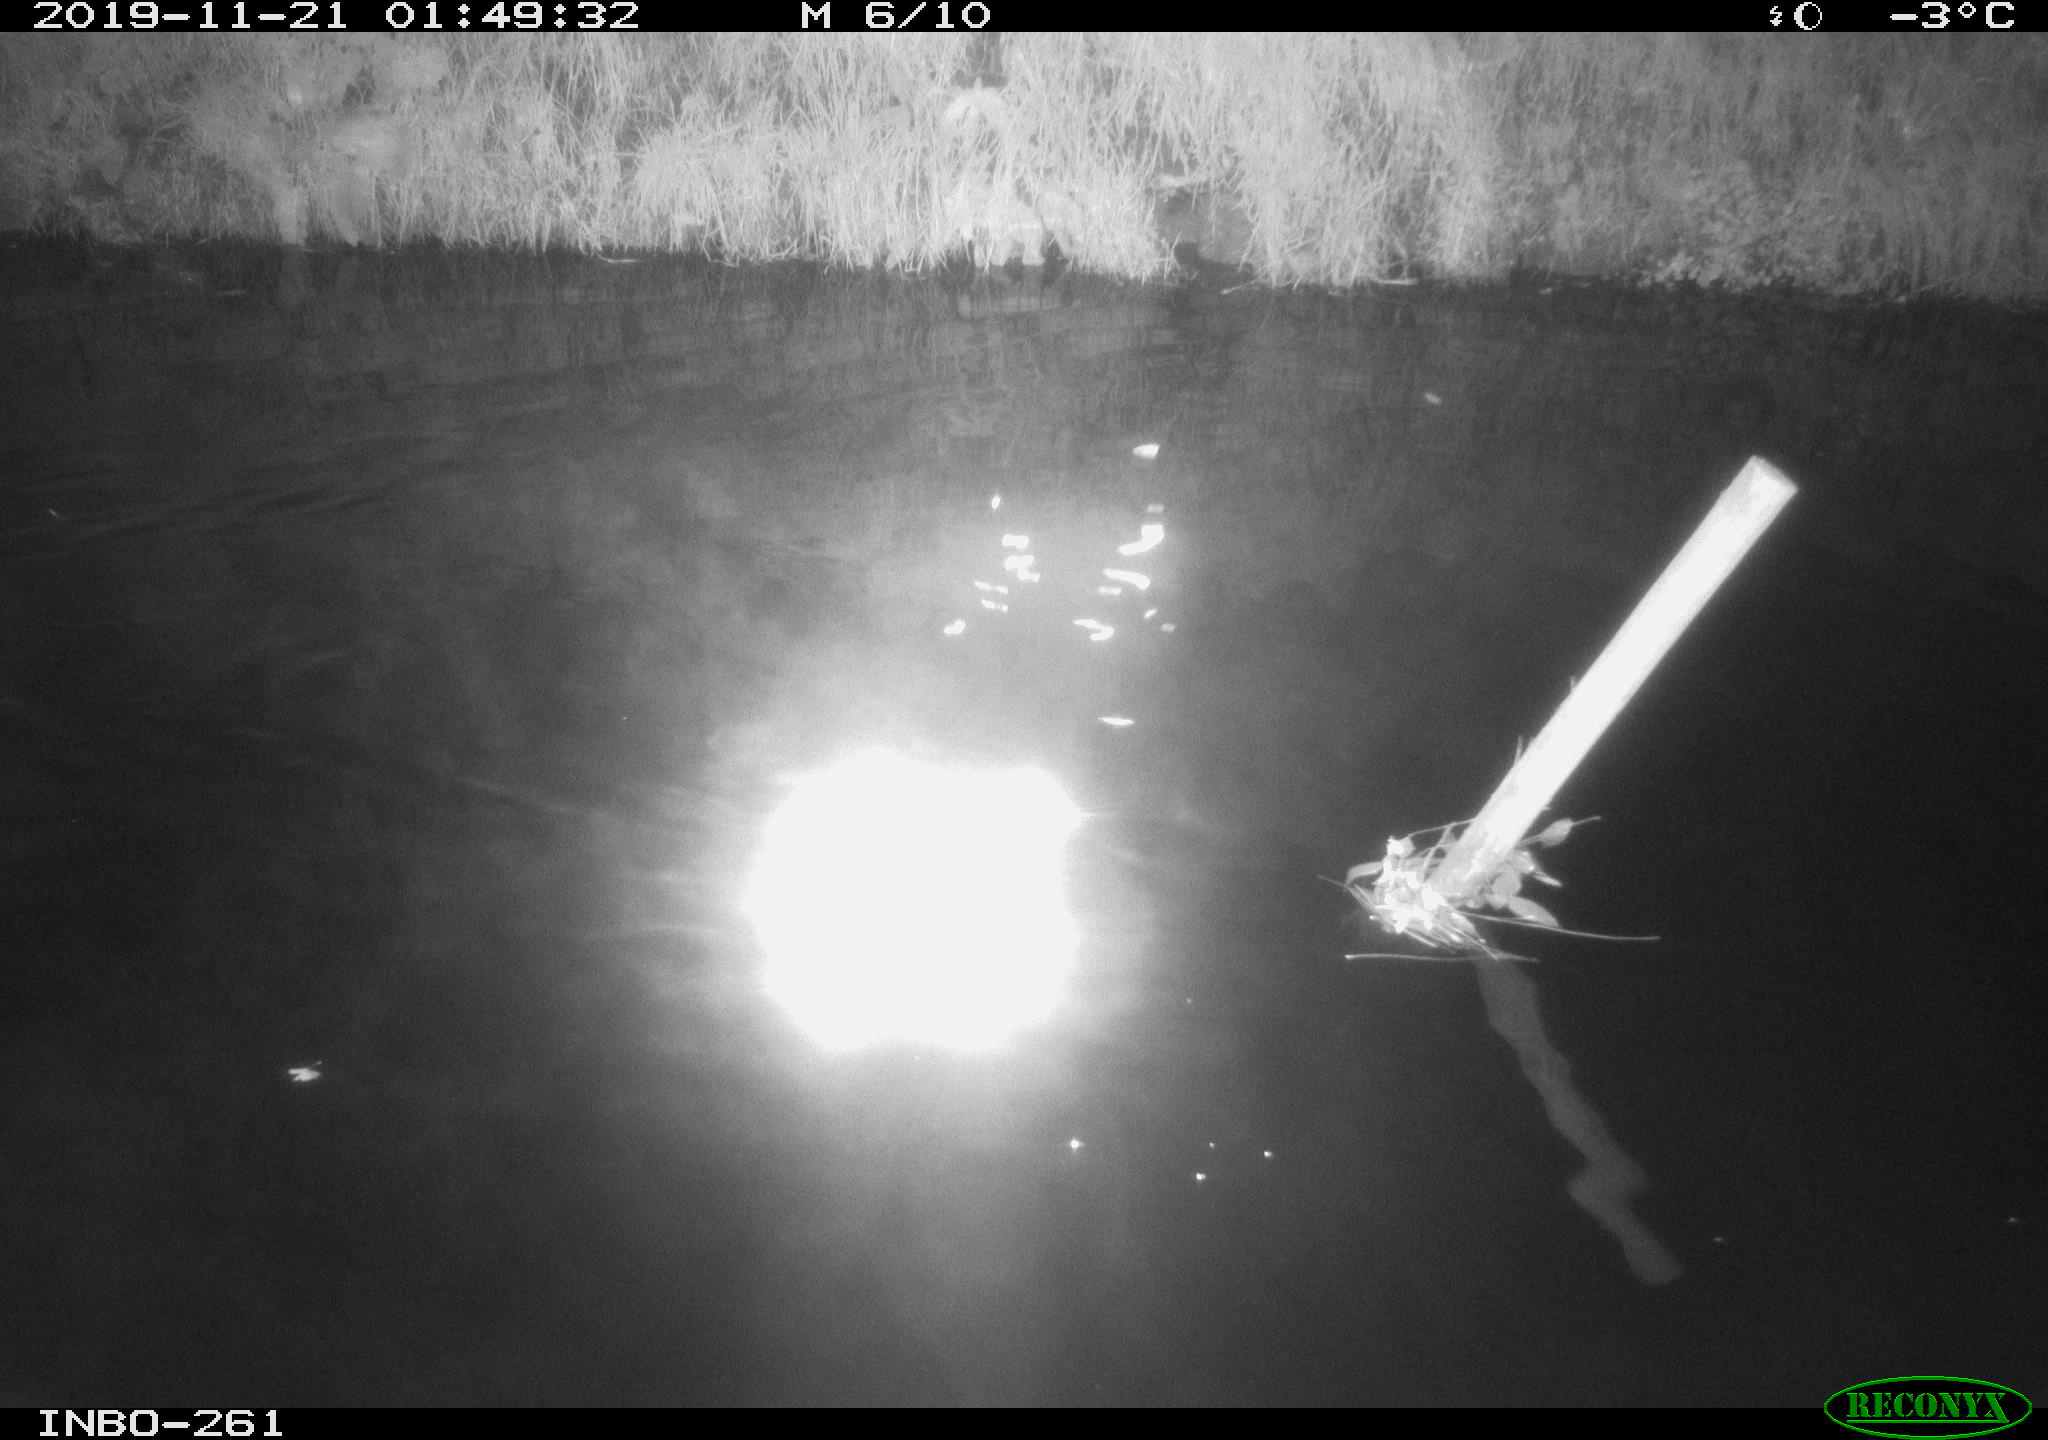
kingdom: Animalia
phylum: Chordata
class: Aves
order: Anseriformes
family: Anatidae
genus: Anas
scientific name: Anas platyrhynchos
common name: Mallard
